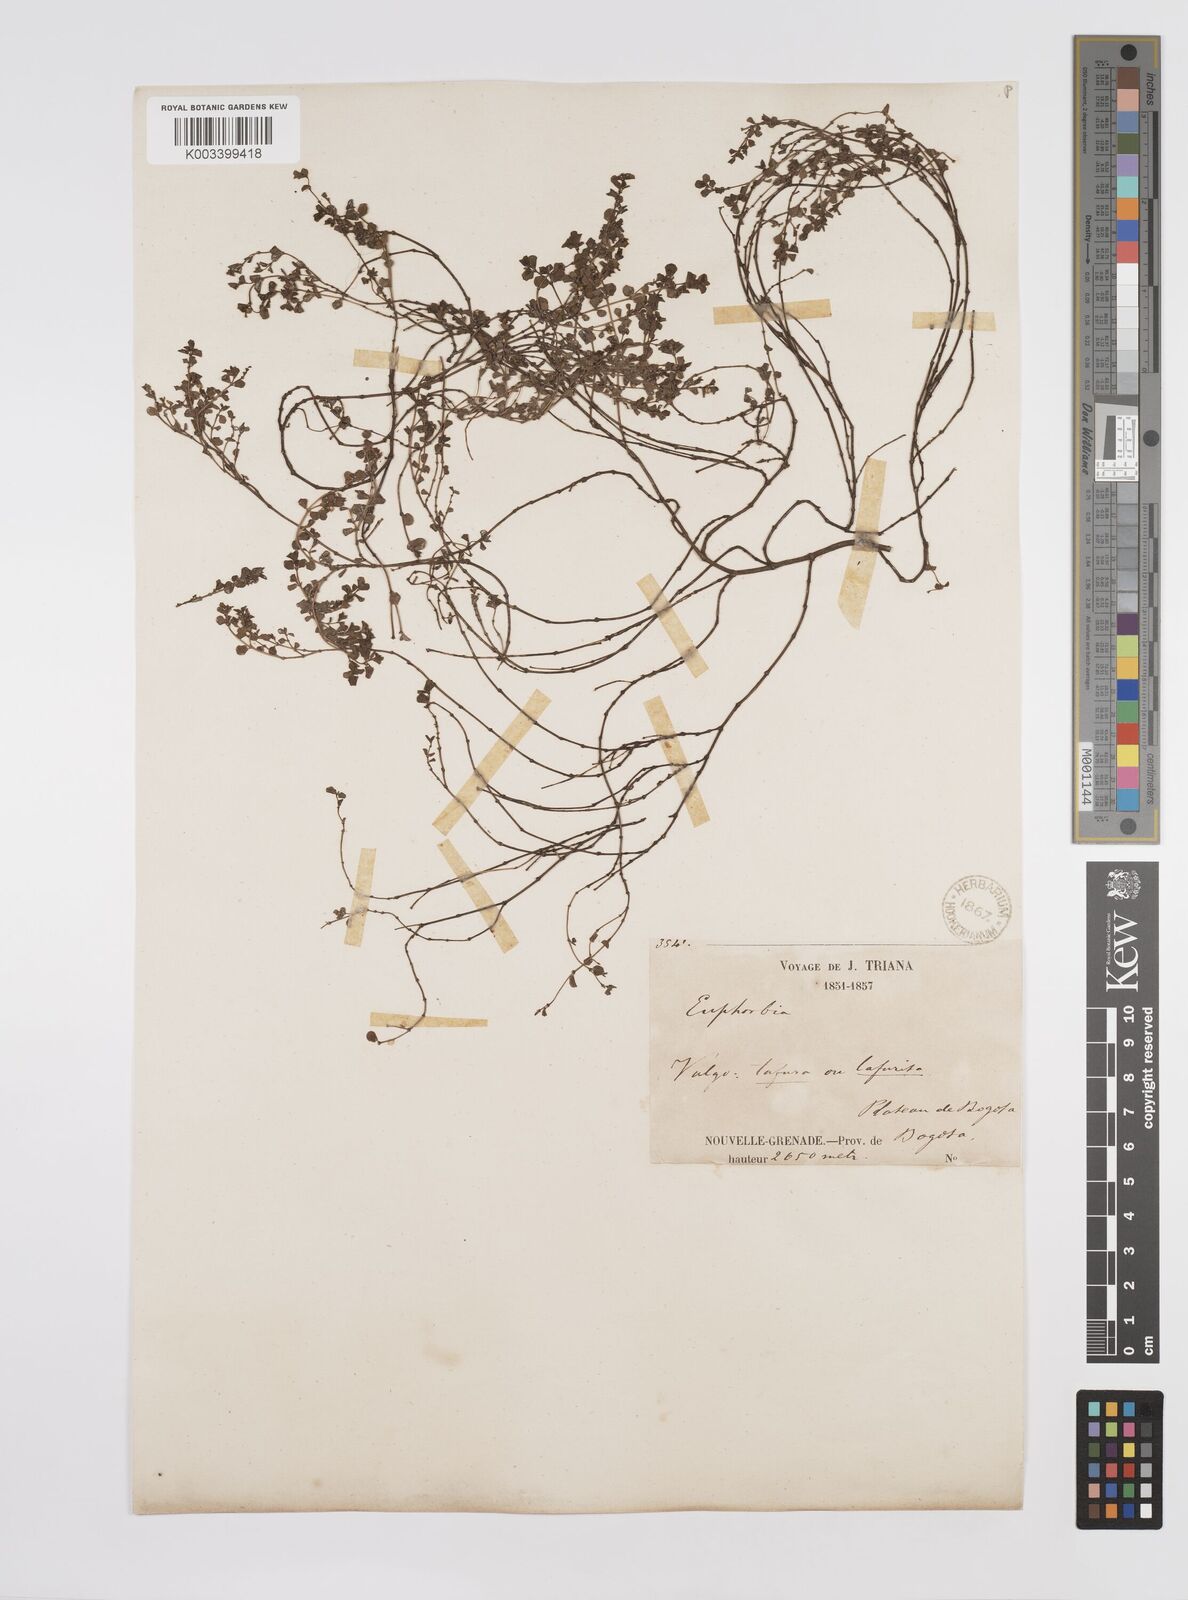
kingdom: Plantae
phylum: Tracheophyta
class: Magnoliopsida
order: Malpighiales
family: Euphorbiaceae
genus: Euphorbia
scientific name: Euphorbia
